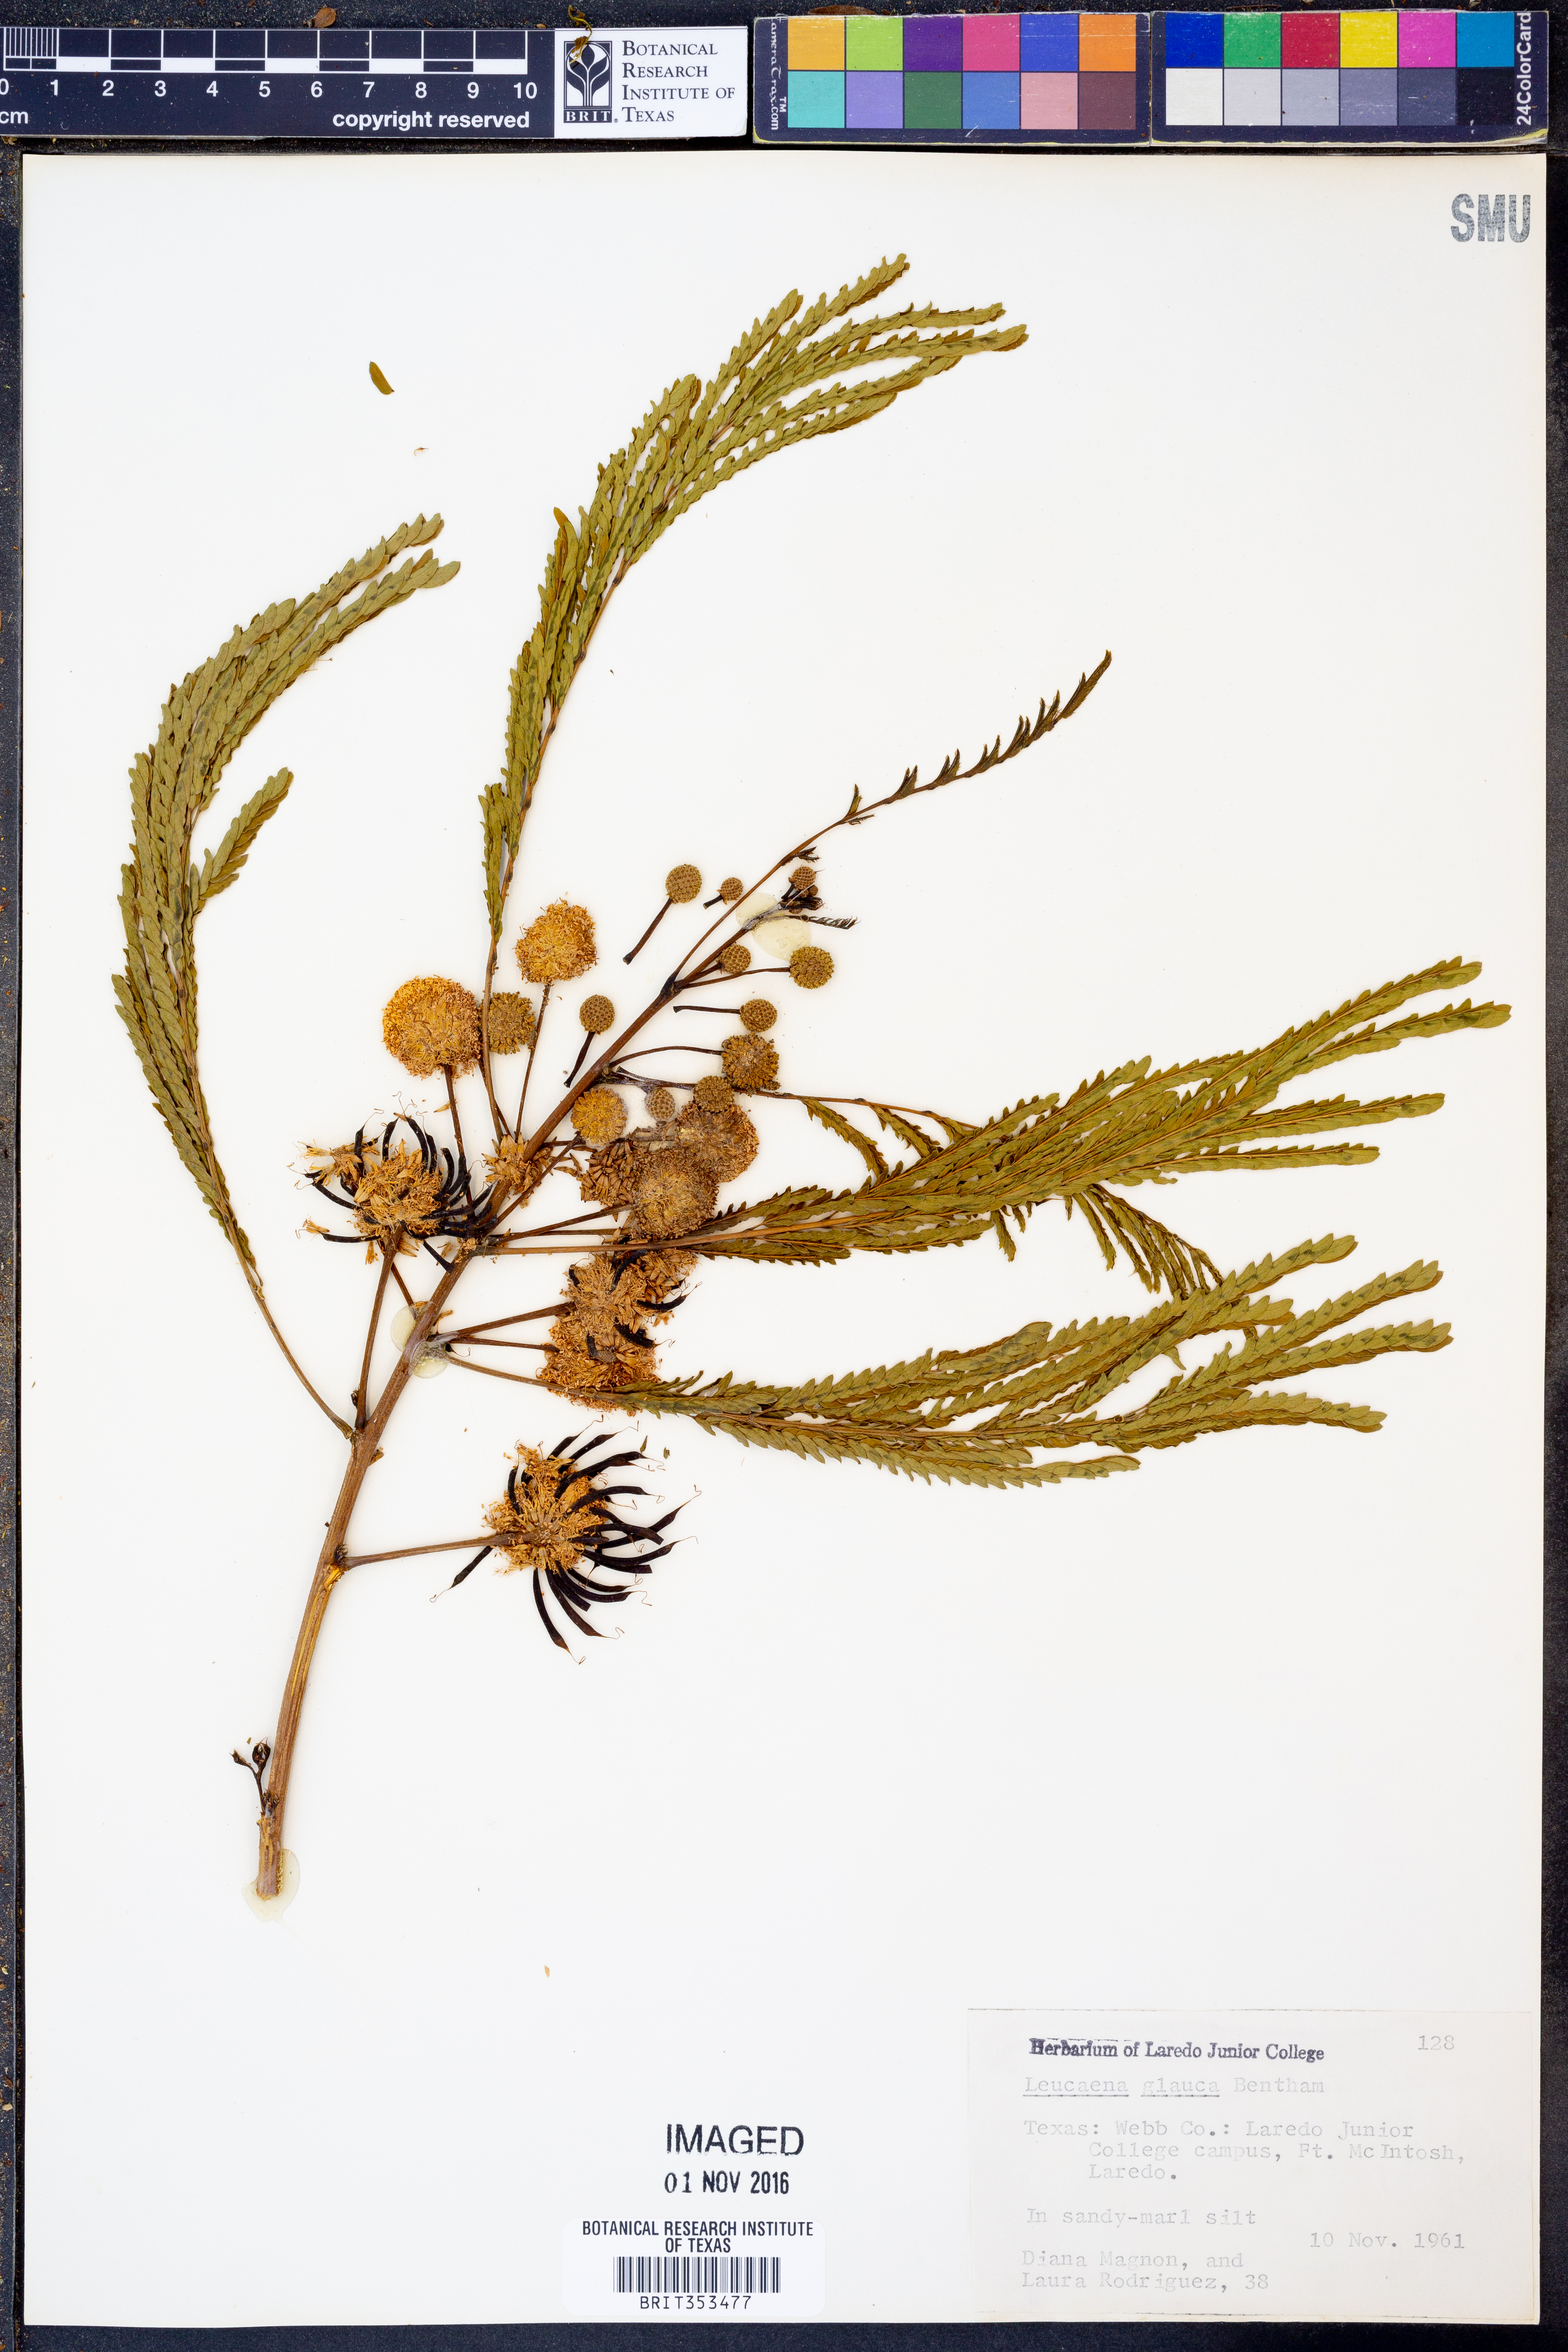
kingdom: Plantae
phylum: Tracheophyta
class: Magnoliopsida
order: Fabales
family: Fabaceae
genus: Acaciella
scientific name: Acaciella glauca
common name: Redwood
